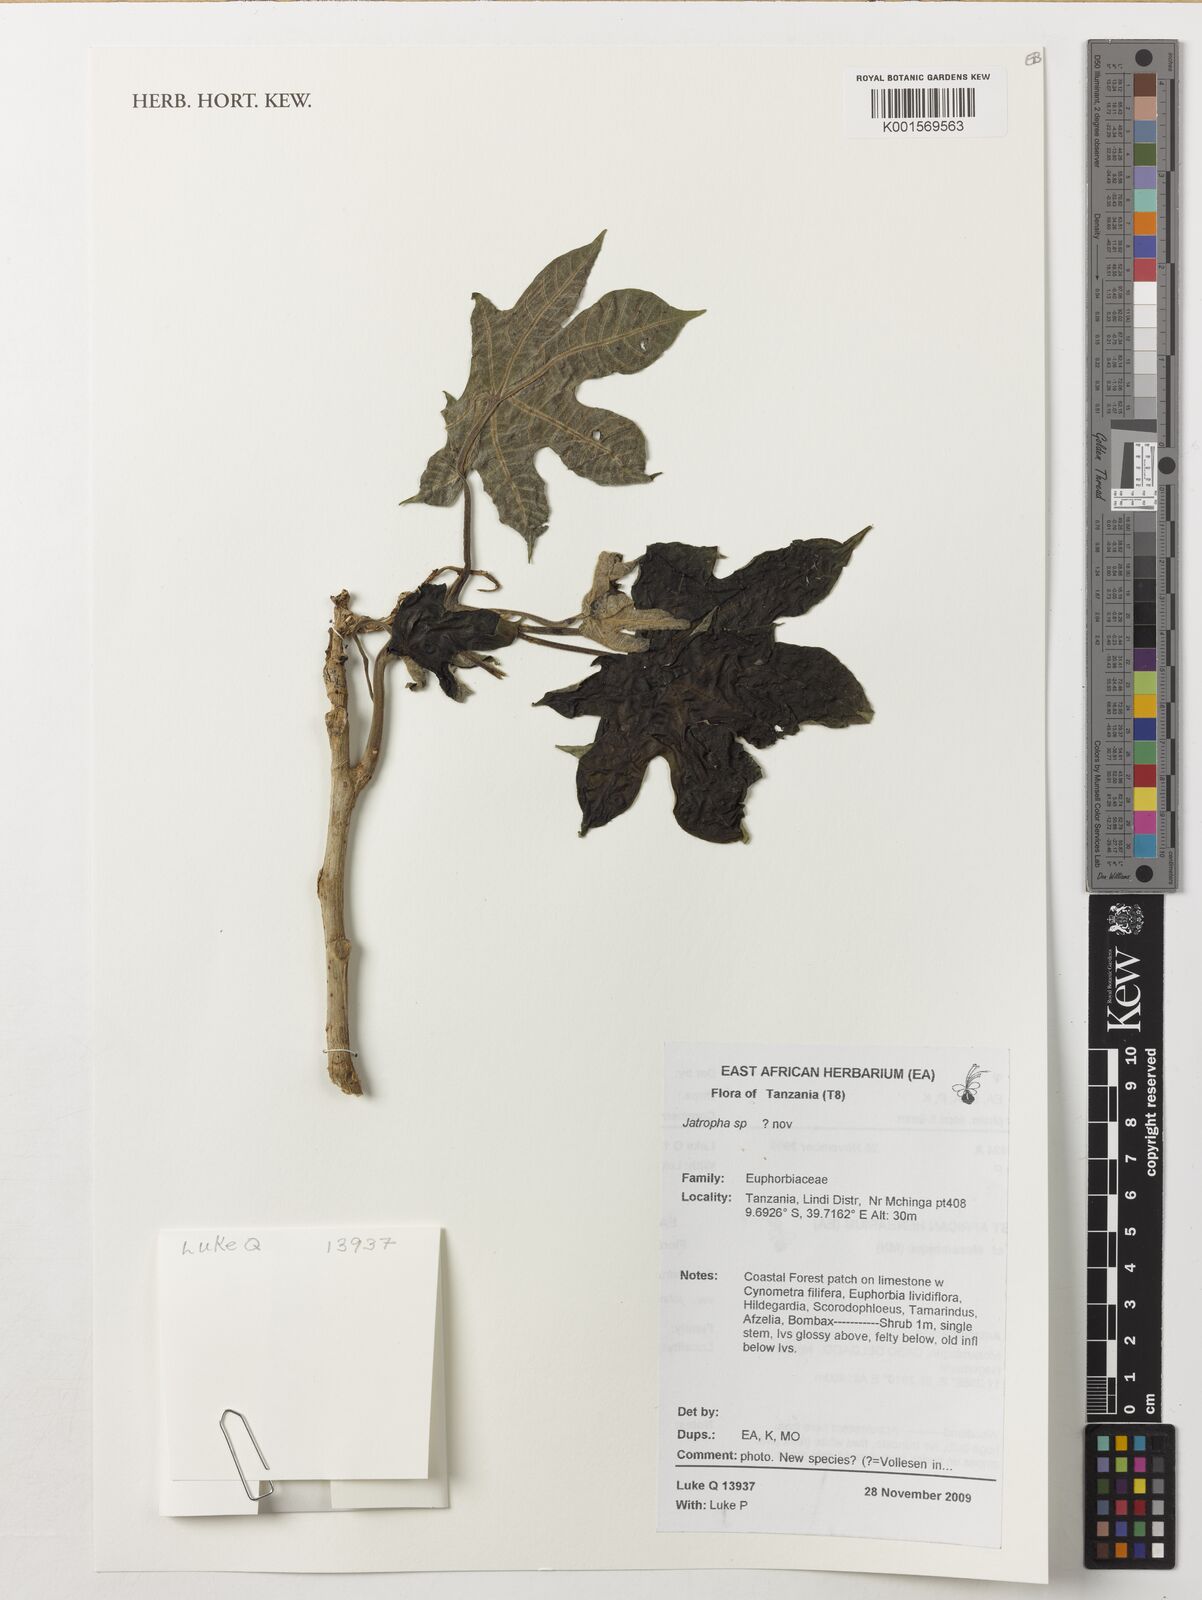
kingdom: Plantae
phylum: Tracheophyta
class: Magnoliopsida
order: Malpighiales
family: Euphorbiaceae
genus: Jatropha
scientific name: Jatropha
